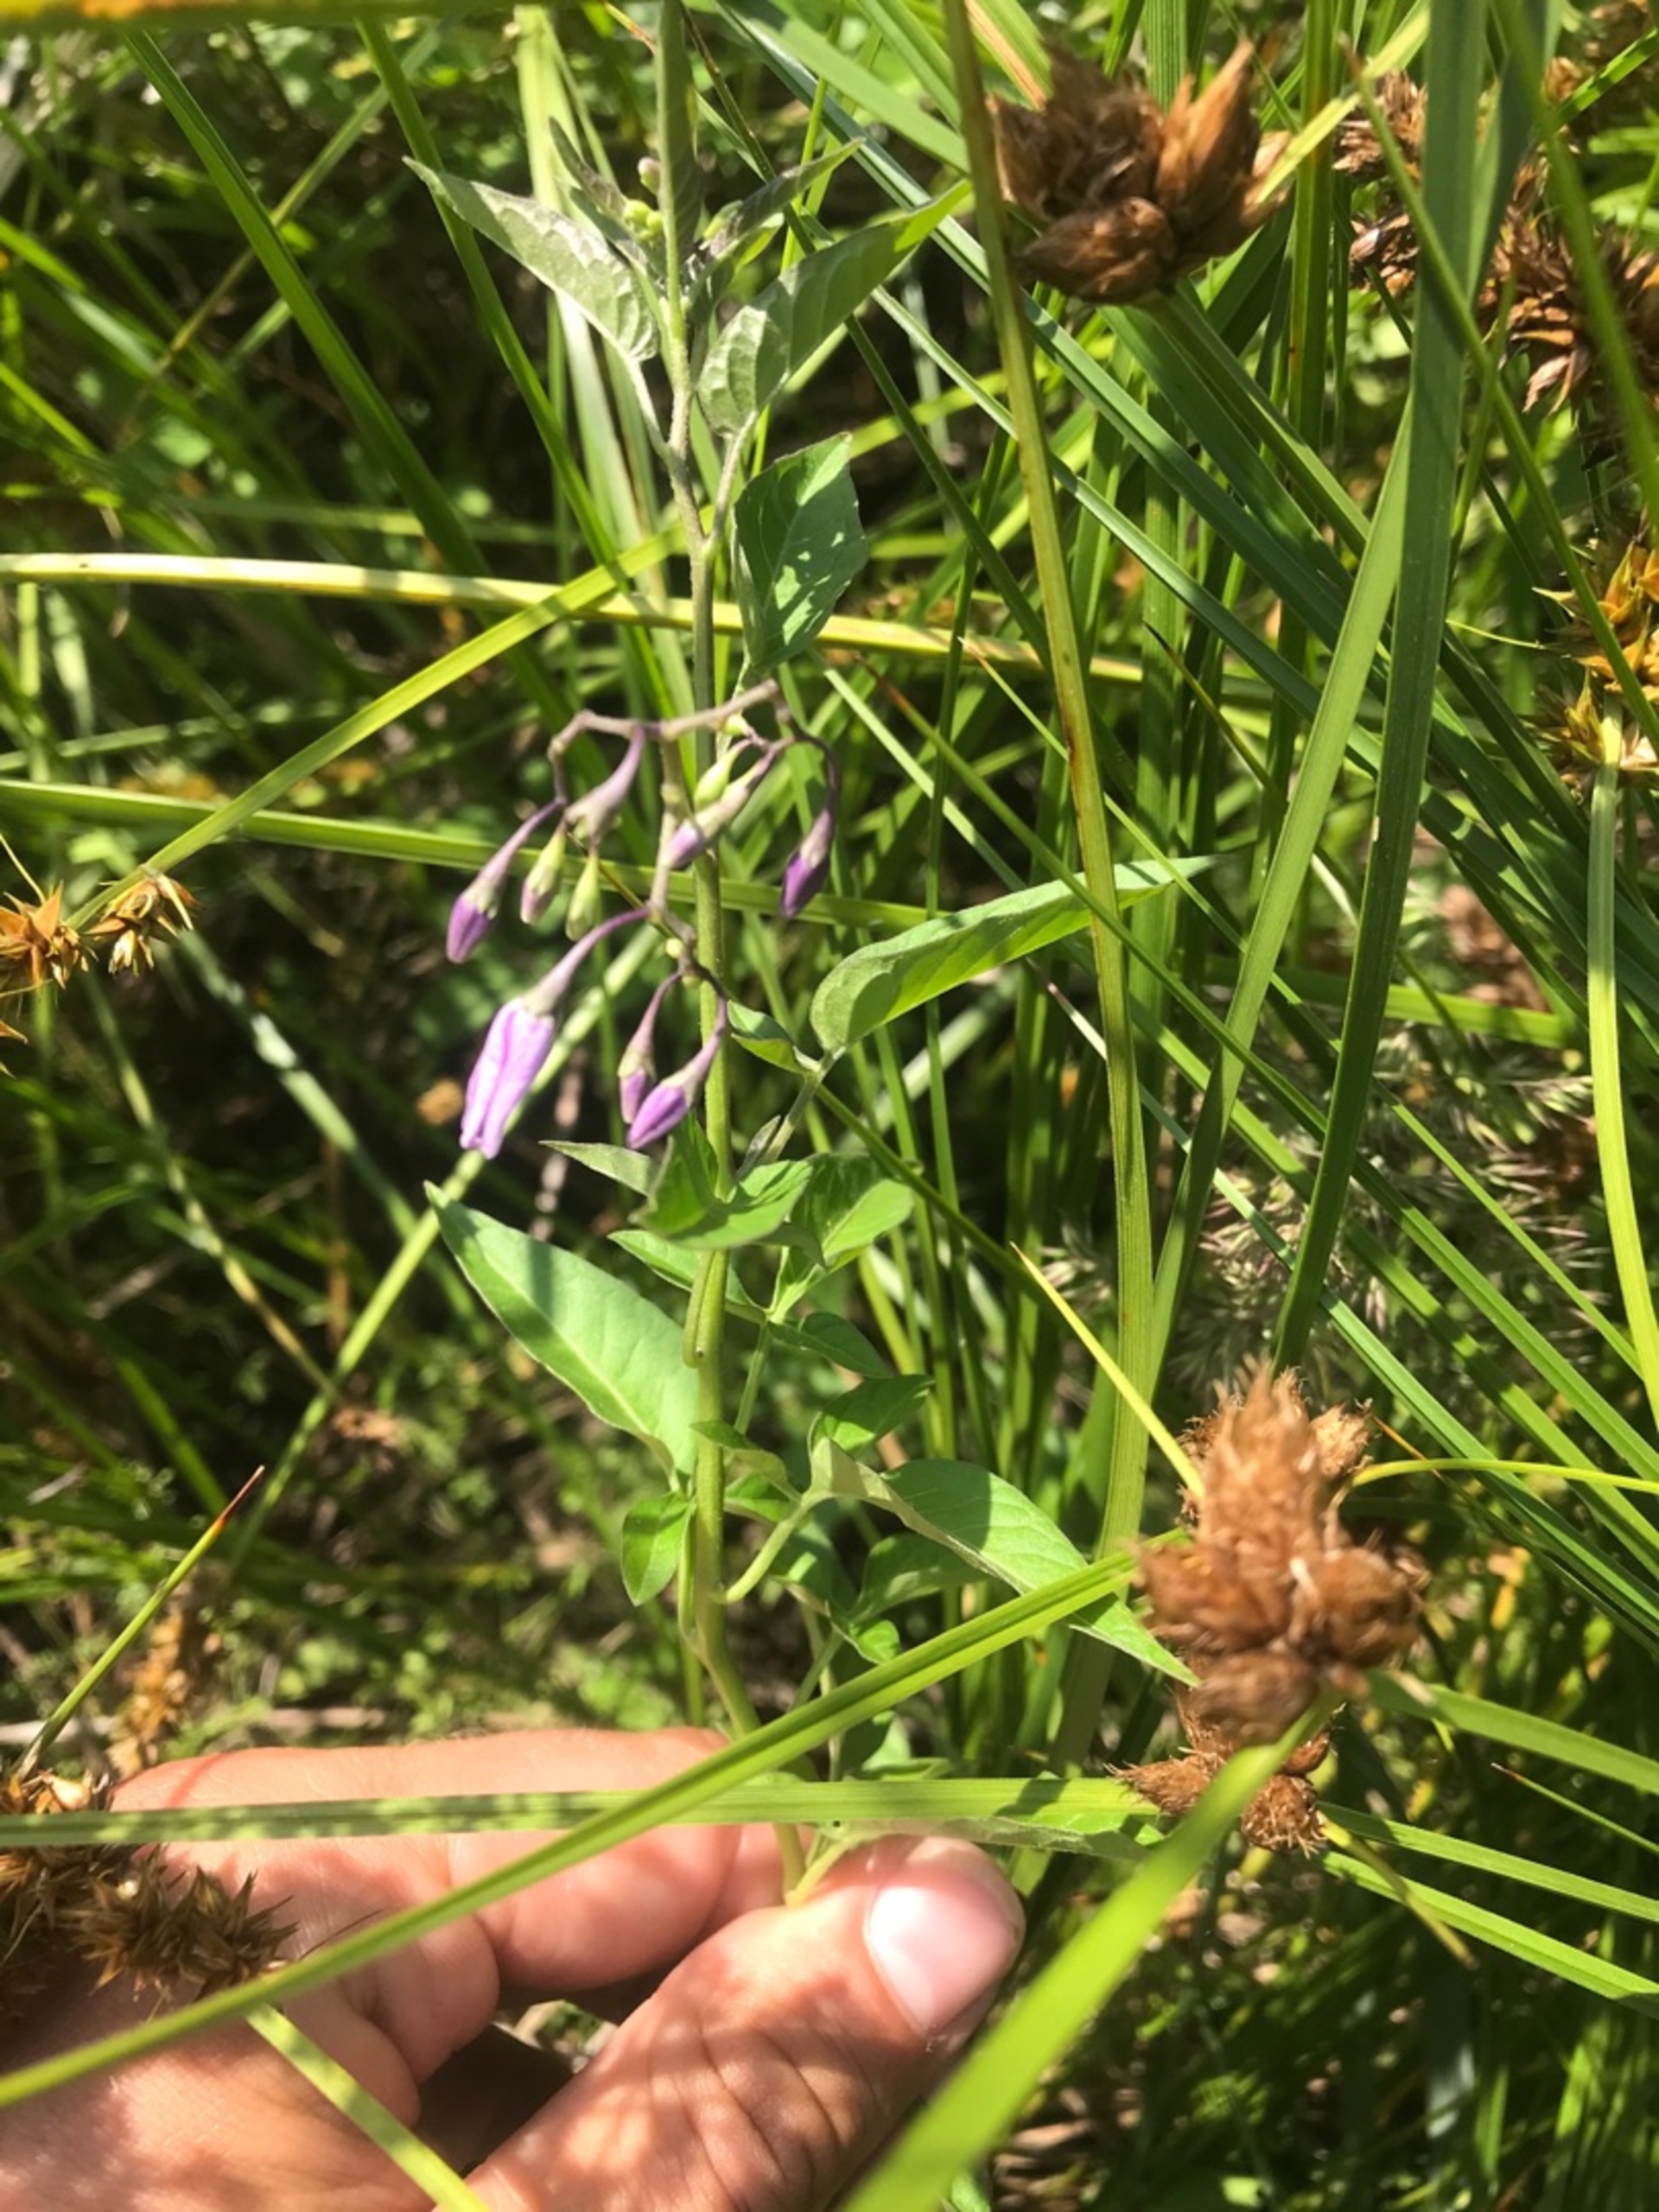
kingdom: Plantae
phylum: Tracheophyta
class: Magnoliopsida
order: Solanales
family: Solanaceae
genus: Solanum
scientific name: Solanum dulcamara
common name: Bittersød natskygge
